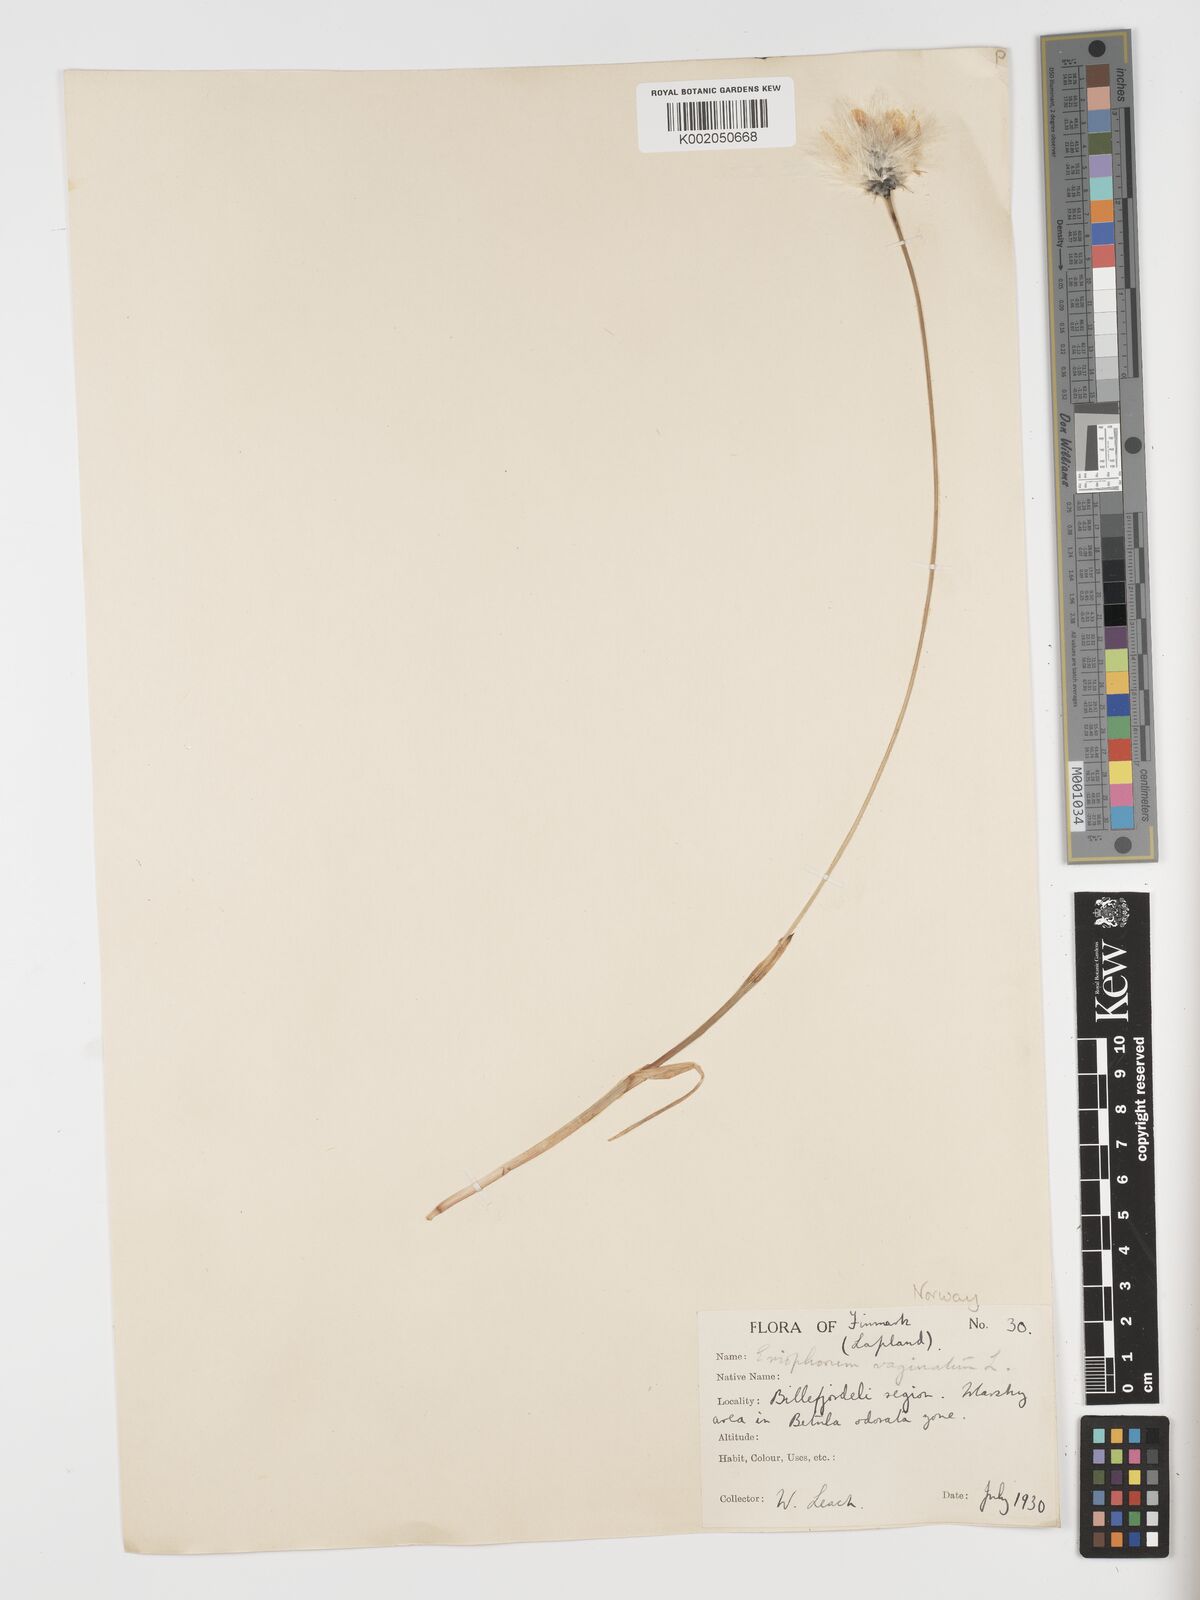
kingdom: Plantae
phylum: Tracheophyta
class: Liliopsida
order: Poales
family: Cyperaceae
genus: Eriophorum
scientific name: Eriophorum vaginatum
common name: Hare's-tail cottongrass
